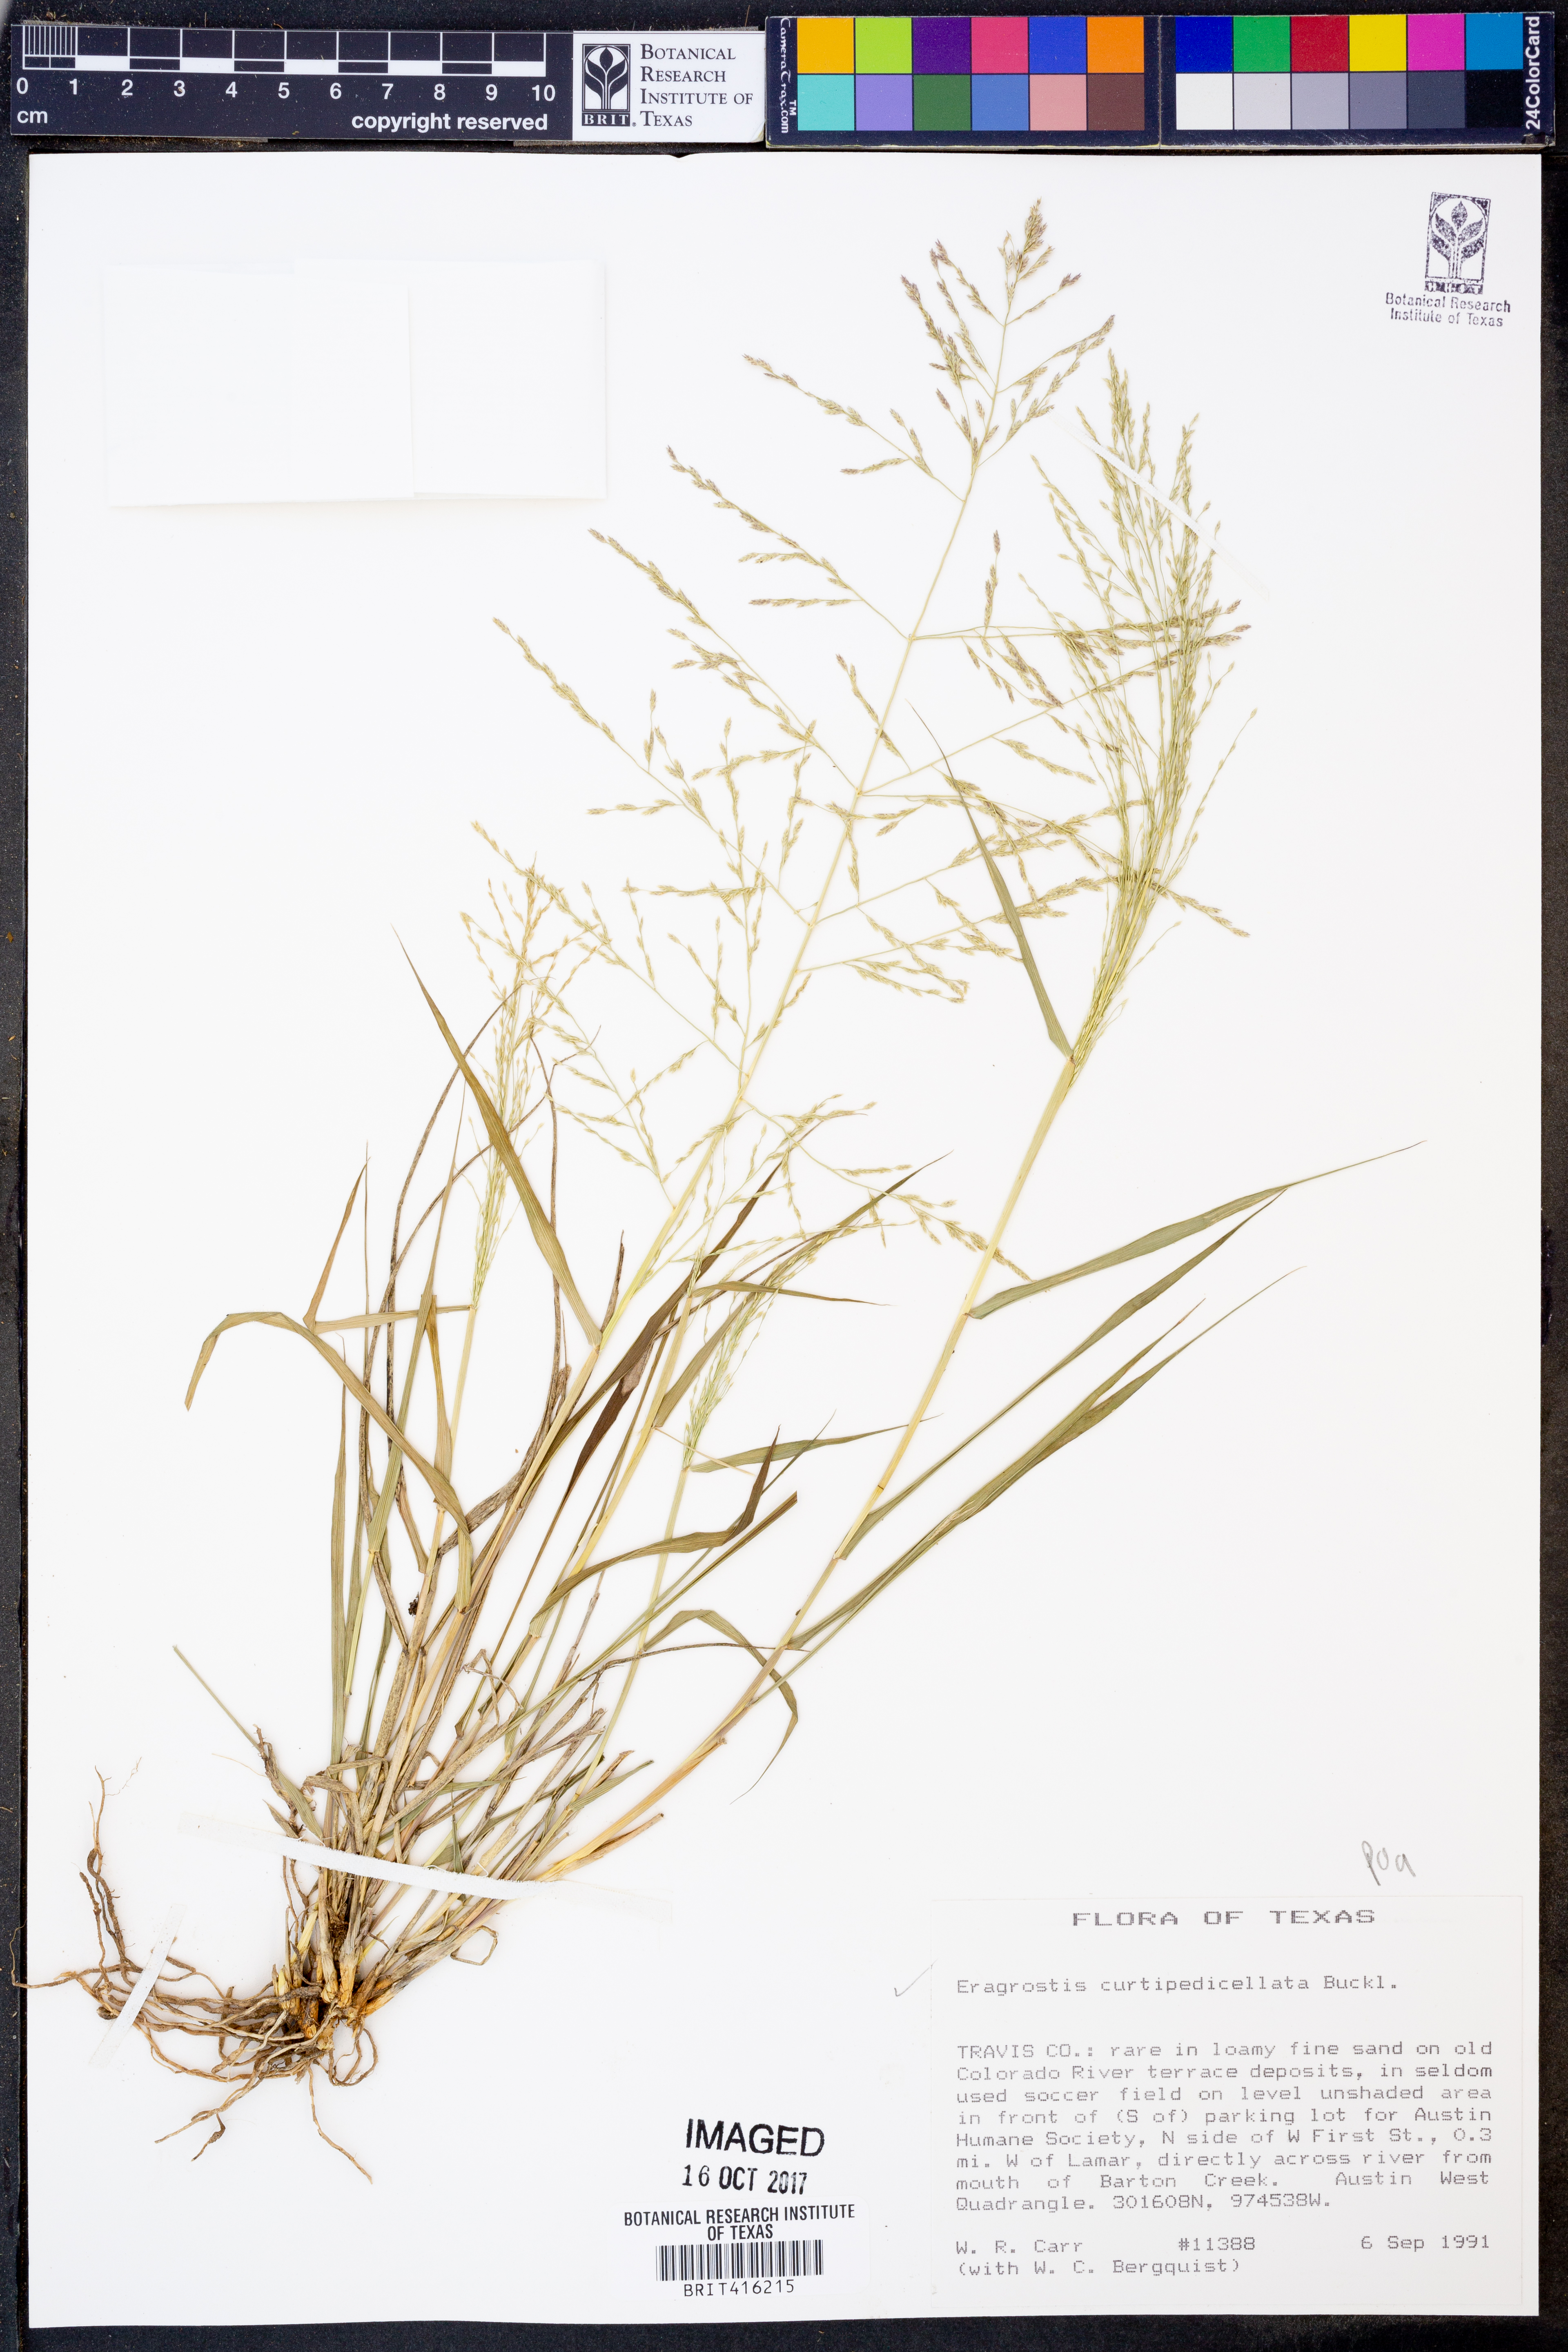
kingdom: Plantae
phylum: Tracheophyta
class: Liliopsida
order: Poales
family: Poaceae
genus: Eragrostis
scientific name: Eragrostis curtipedicellata
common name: Gummy love grass
